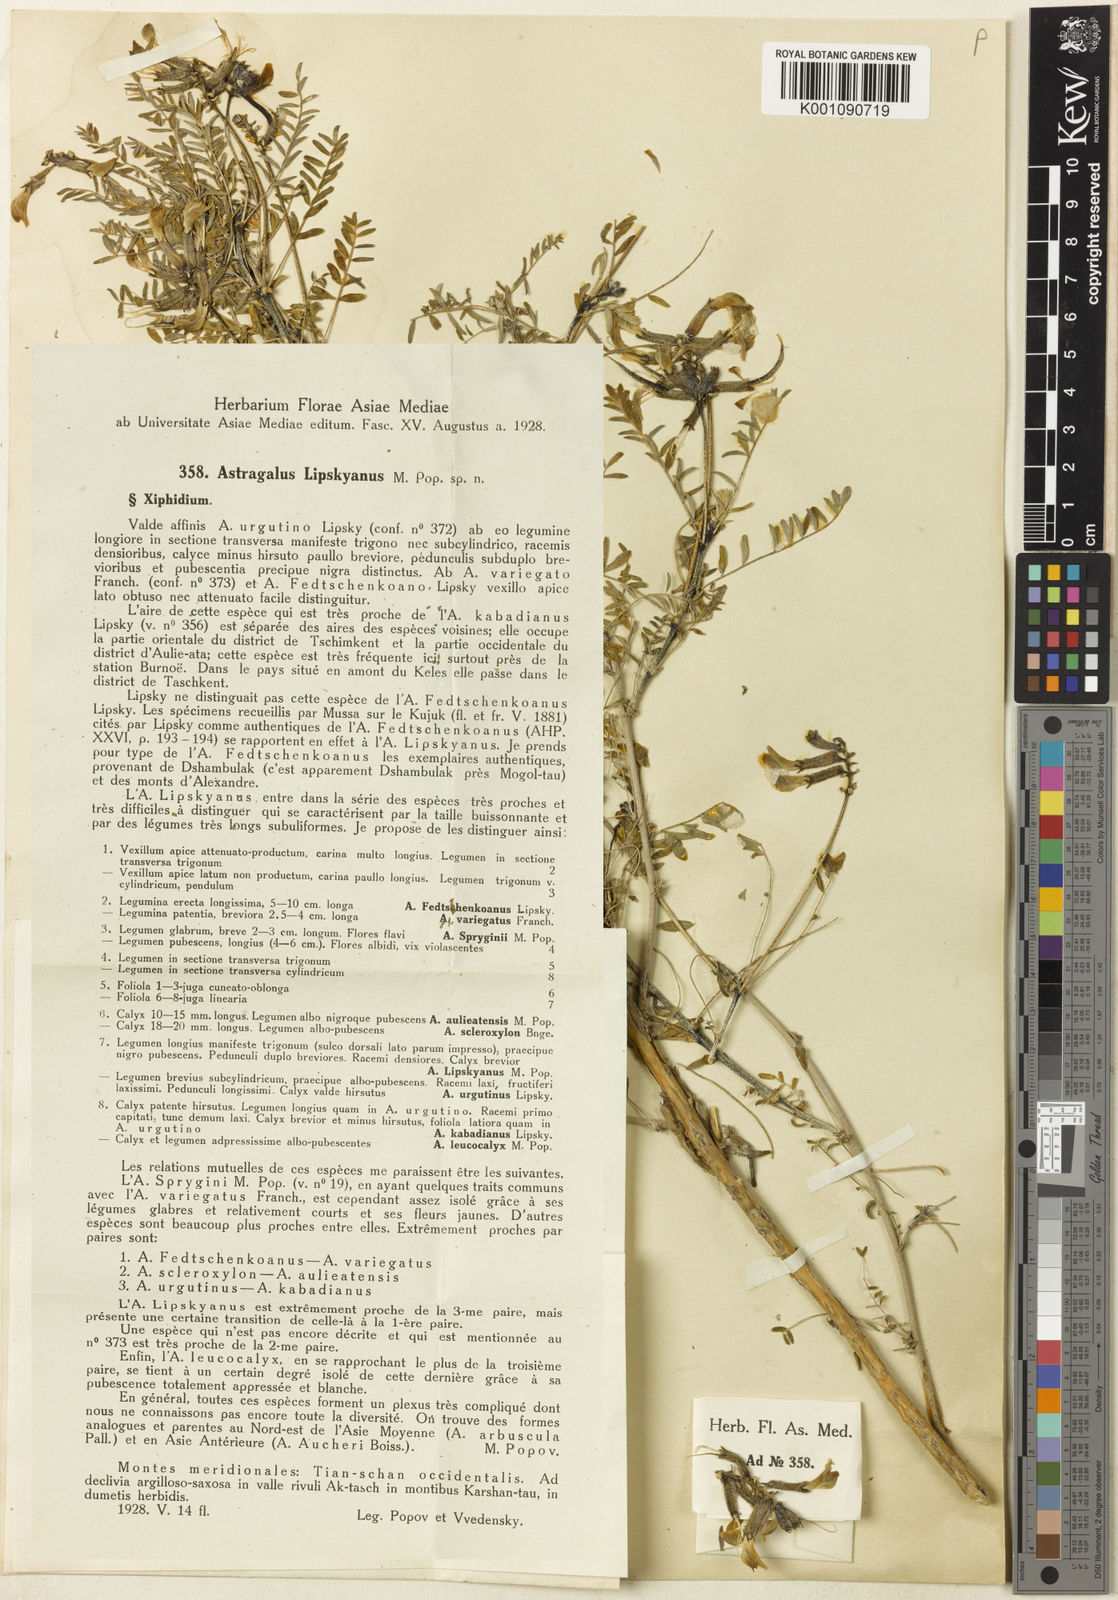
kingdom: Plantae
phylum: Tracheophyta
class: Magnoliopsida
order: Fabales
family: Fabaceae
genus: Astragalus
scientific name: Astragalus
